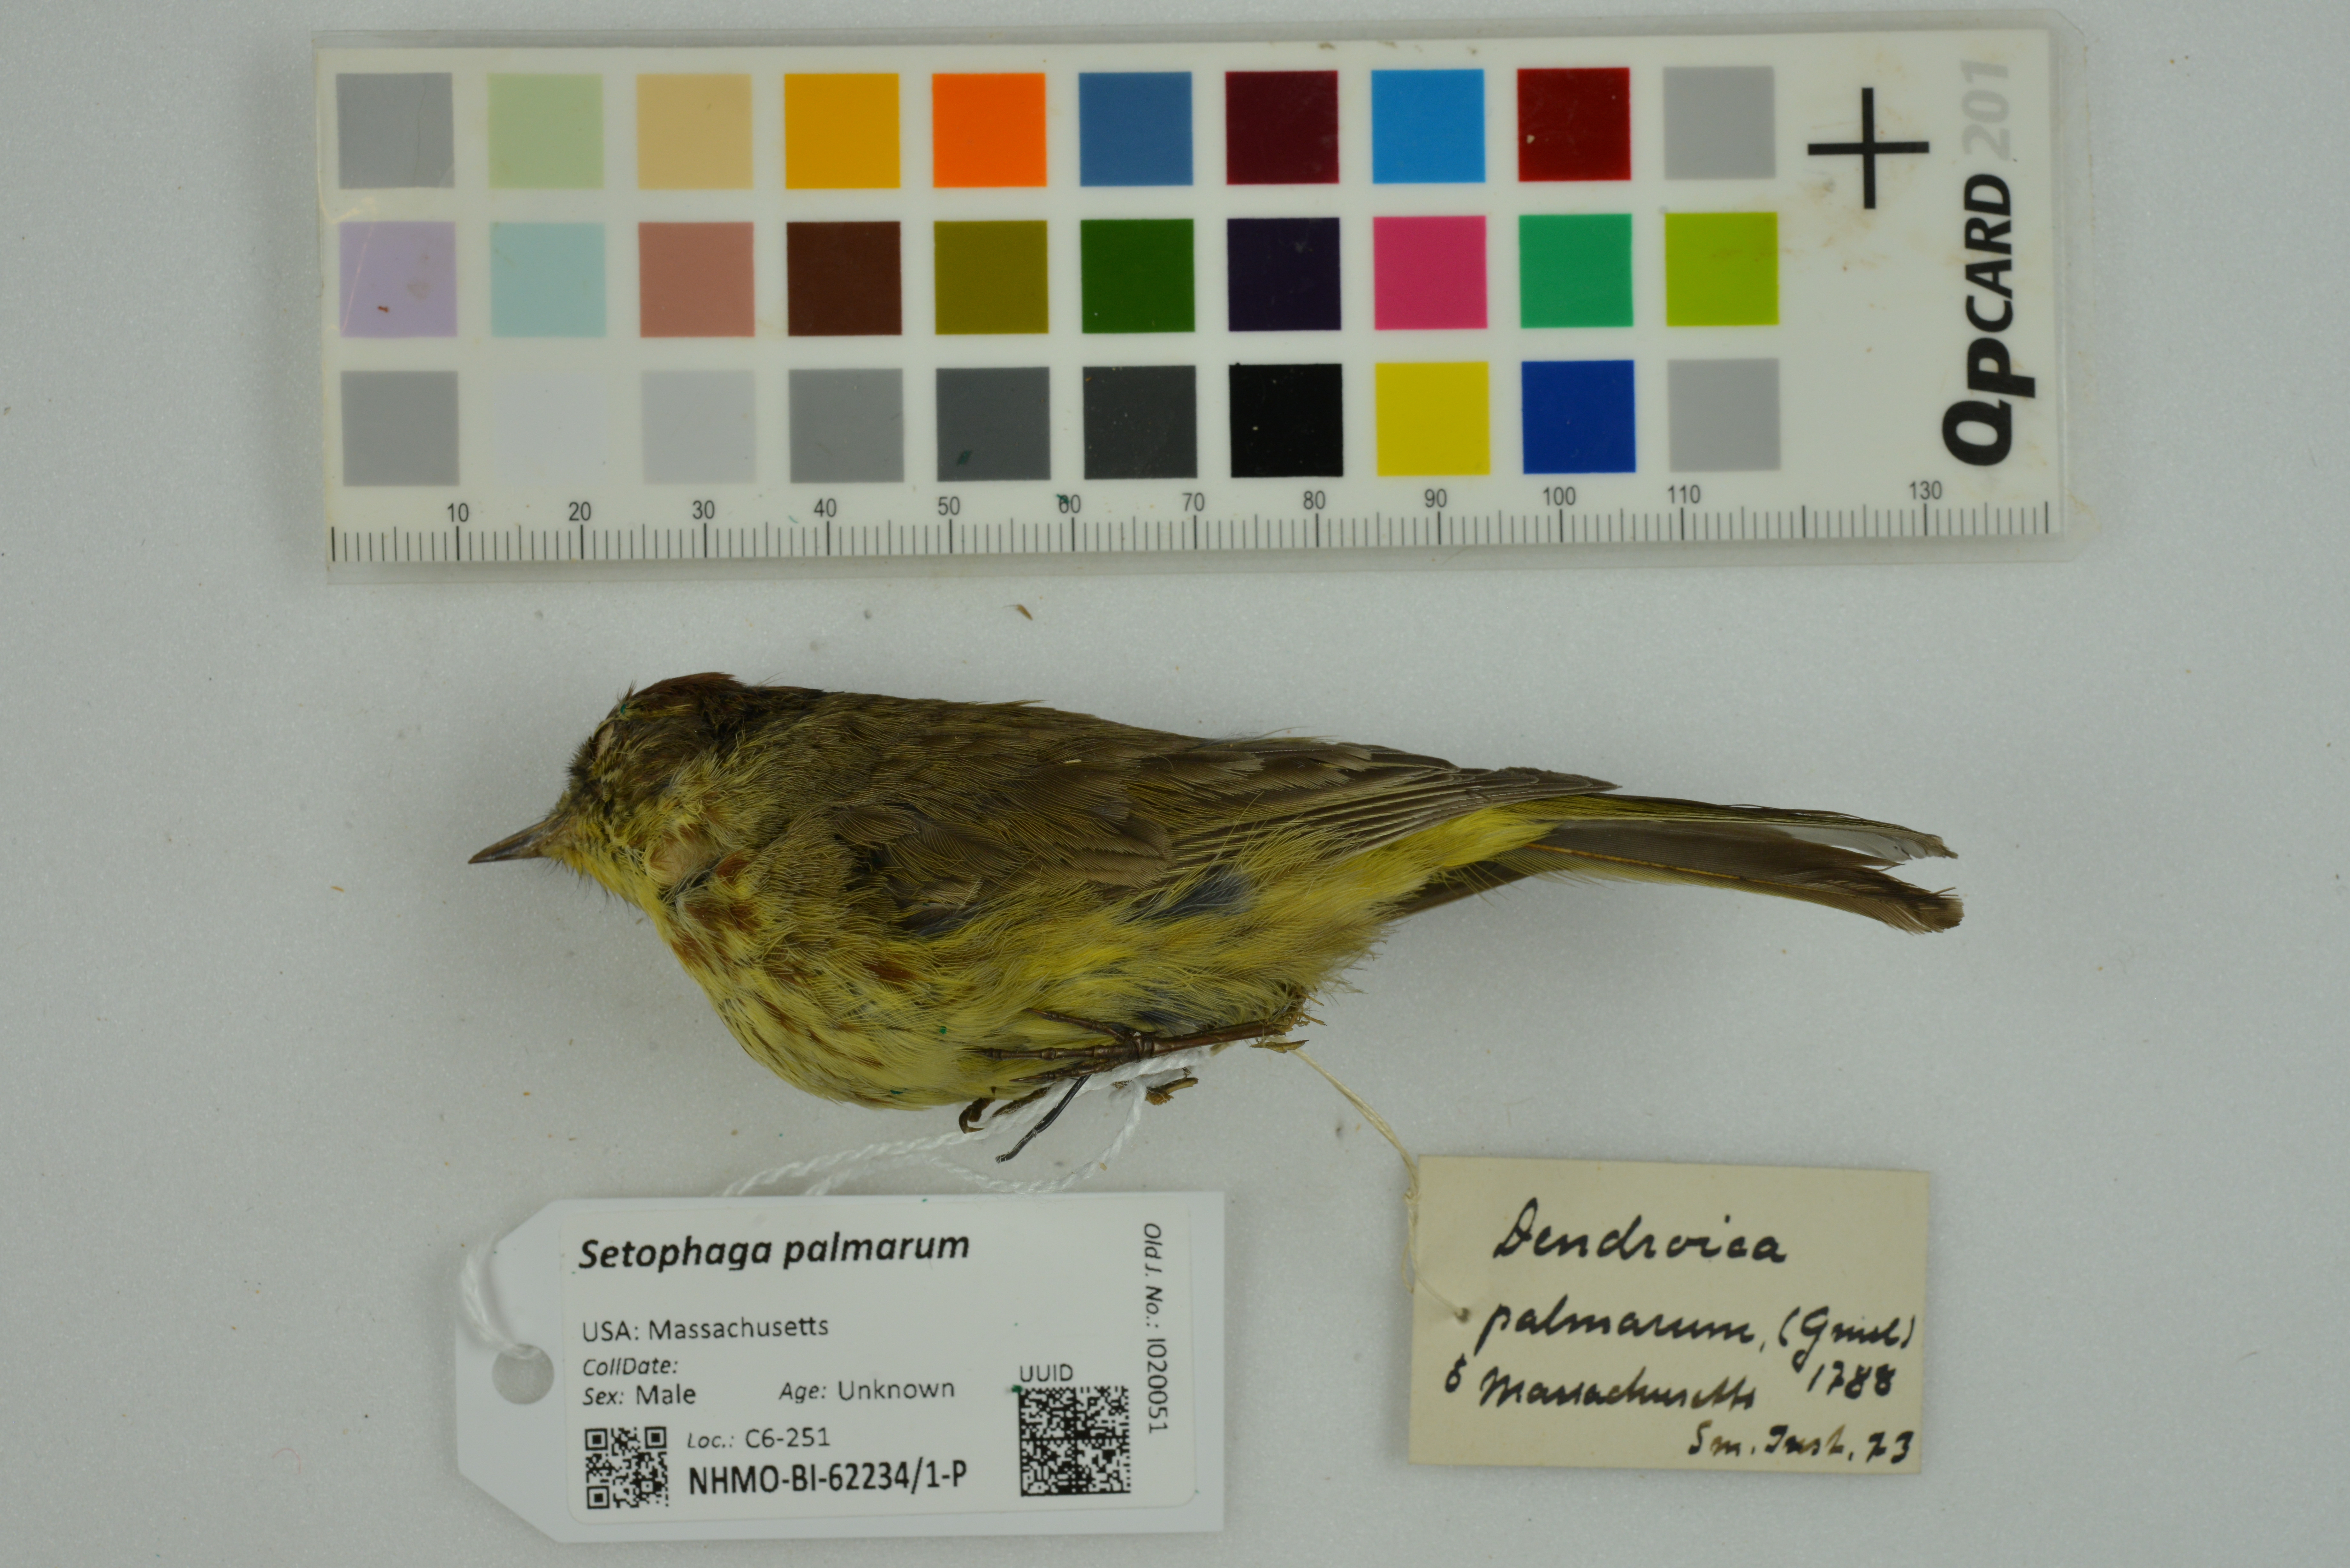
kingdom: Animalia
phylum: Chordata
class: Aves
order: Passeriformes
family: Parulidae
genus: Setophaga
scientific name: Setophaga palmarum
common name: Palm warbler
